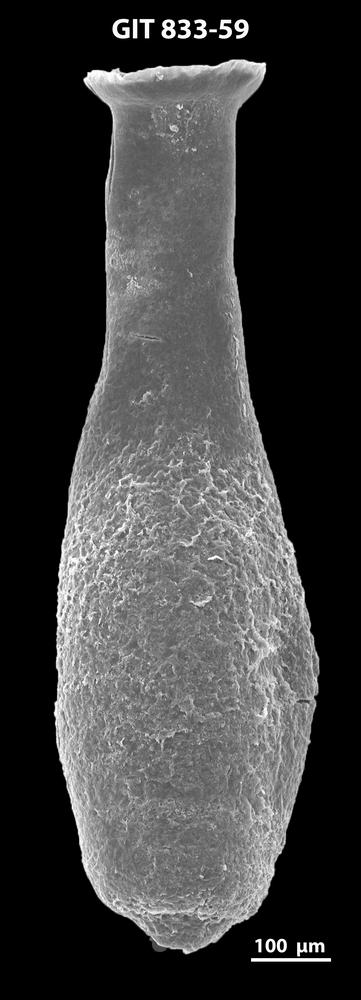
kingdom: Animalia
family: Lagenochitinidae
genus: Lagenochitina
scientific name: Lagenochitina megaesthonica
